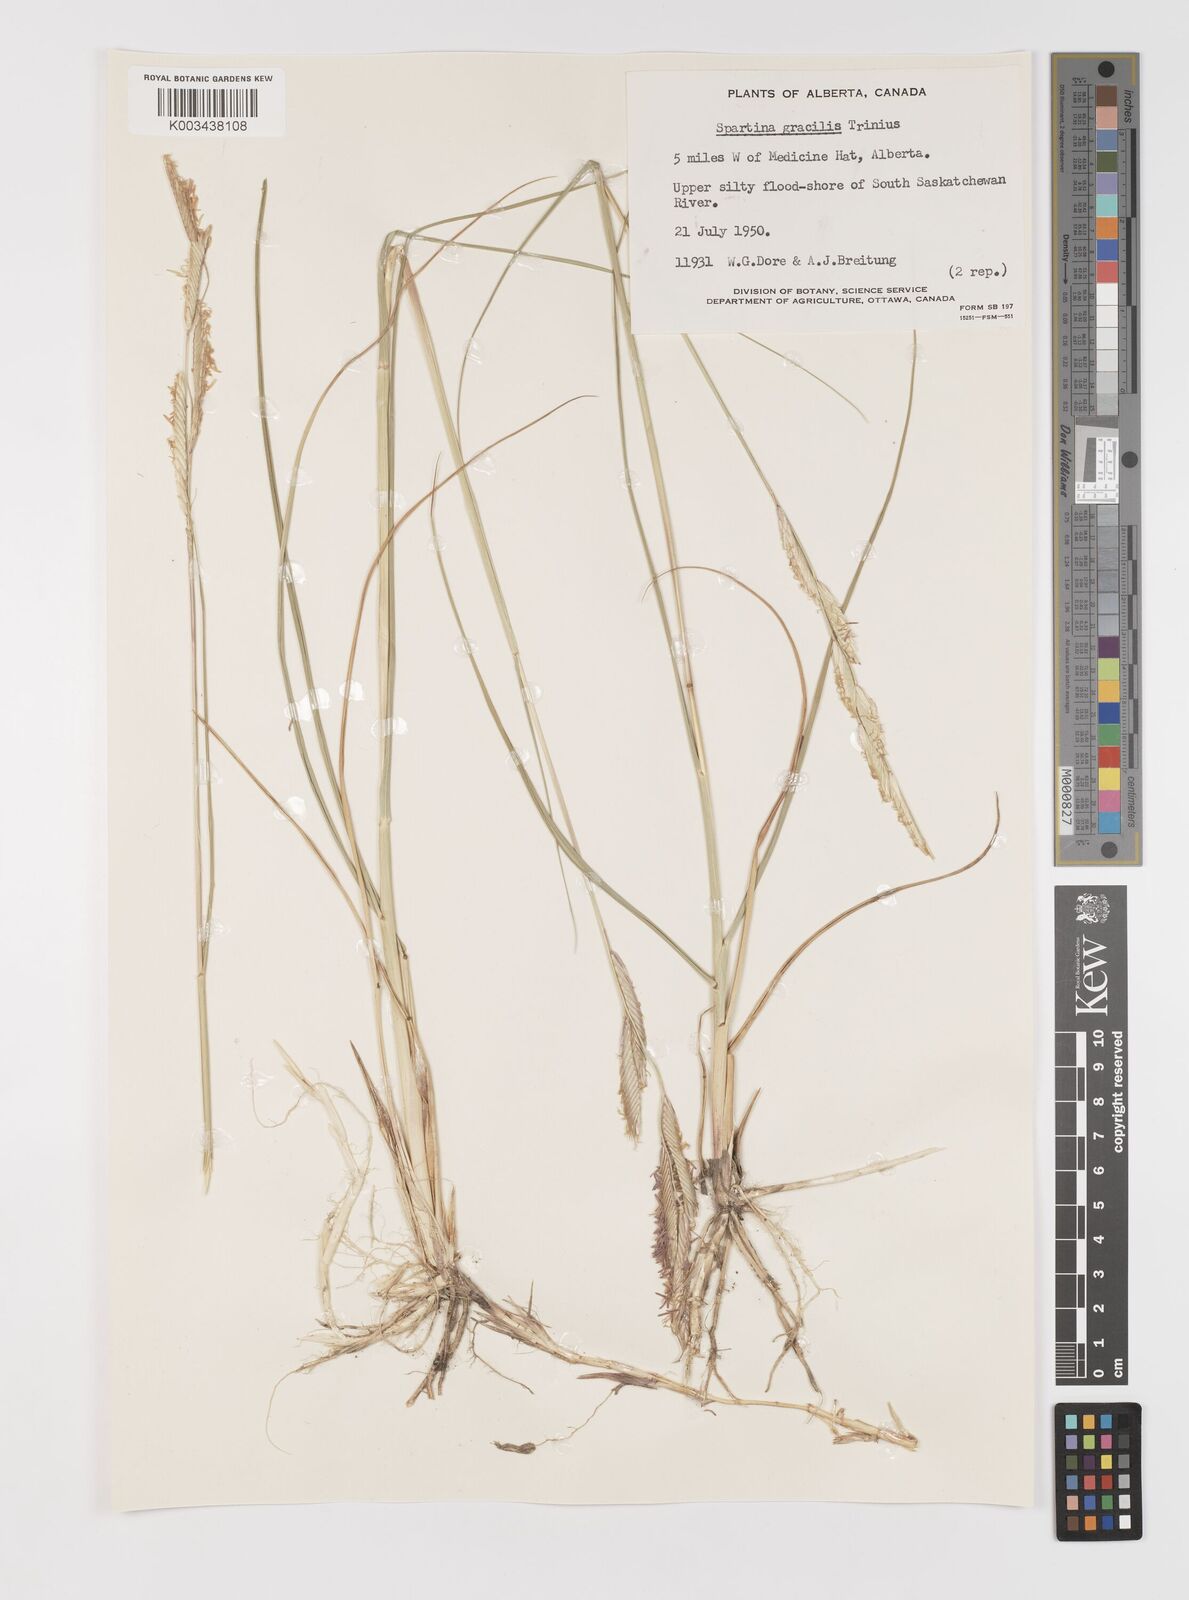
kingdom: Plantae
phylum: Tracheophyta
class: Liliopsida
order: Poales
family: Poaceae
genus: Sporobolus
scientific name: Sporobolus hookerianus
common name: Alkali cordgrass
